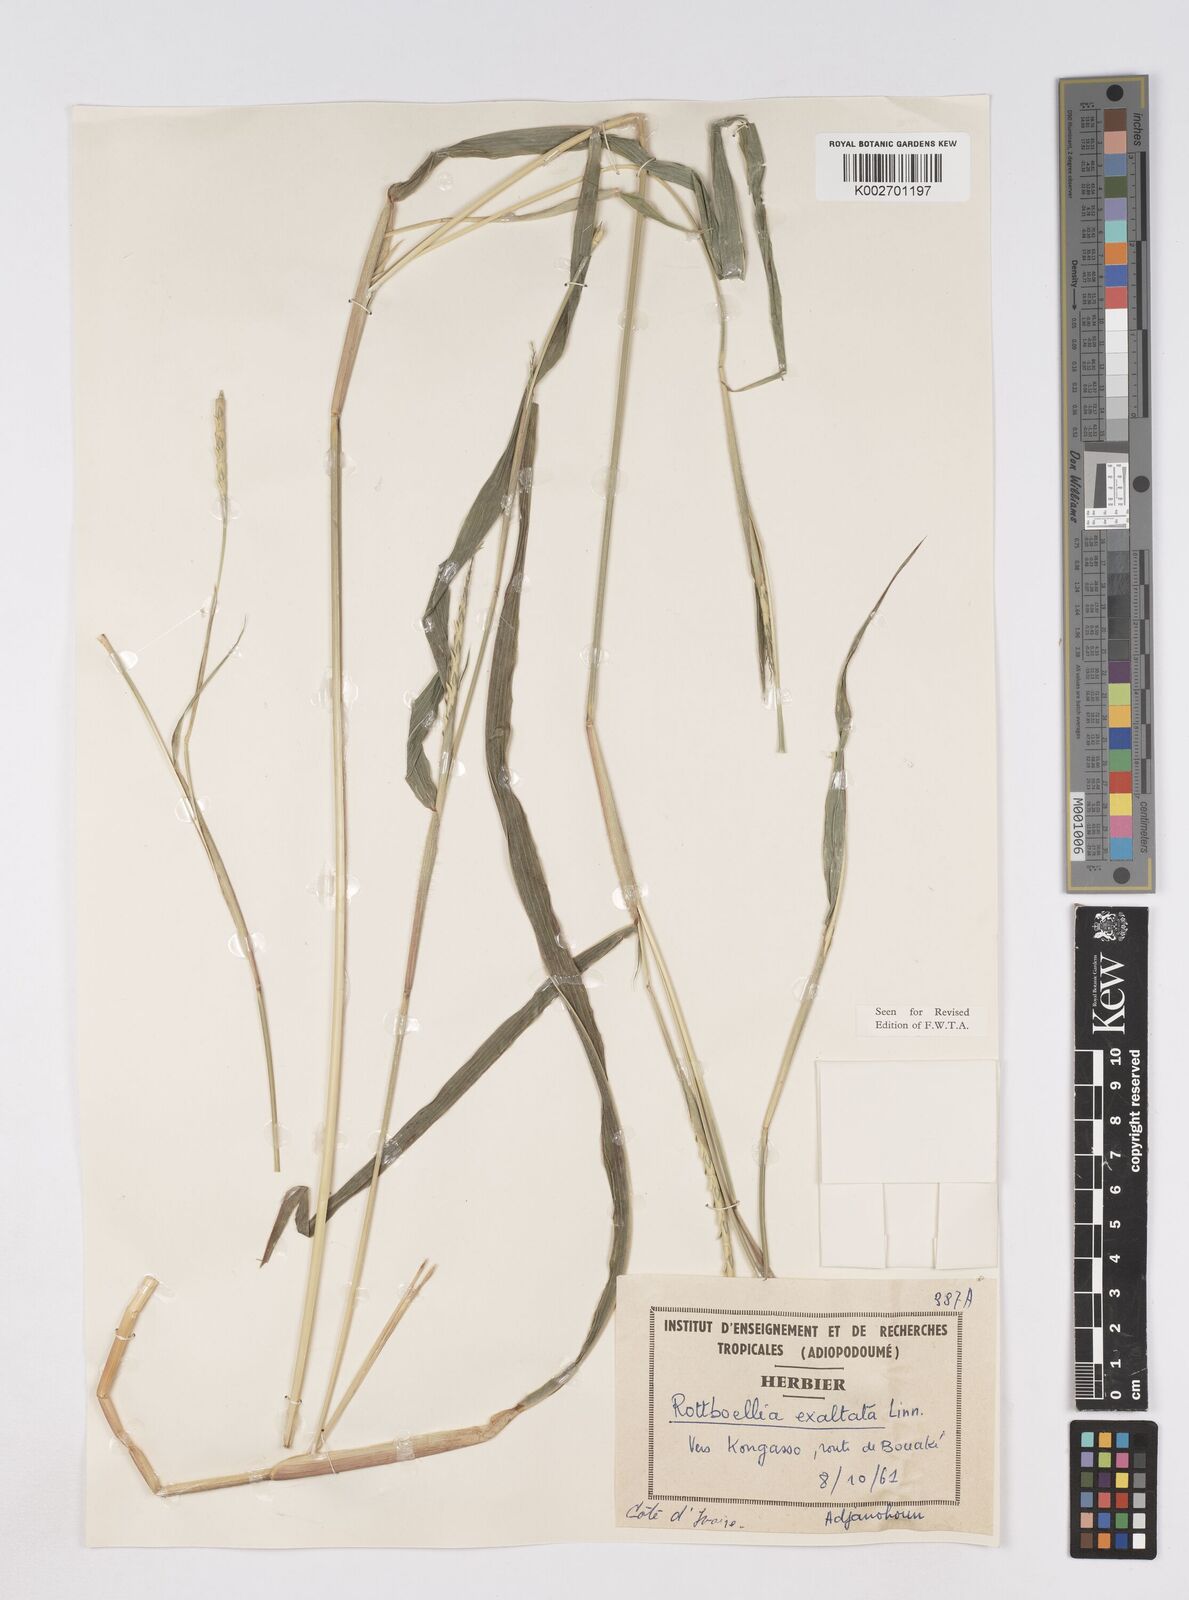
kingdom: Plantae
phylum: Tracheophyta
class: Liliopsida
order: Poales
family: Poaceae
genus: Ophiuros
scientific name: Ophiuros exaltatus
